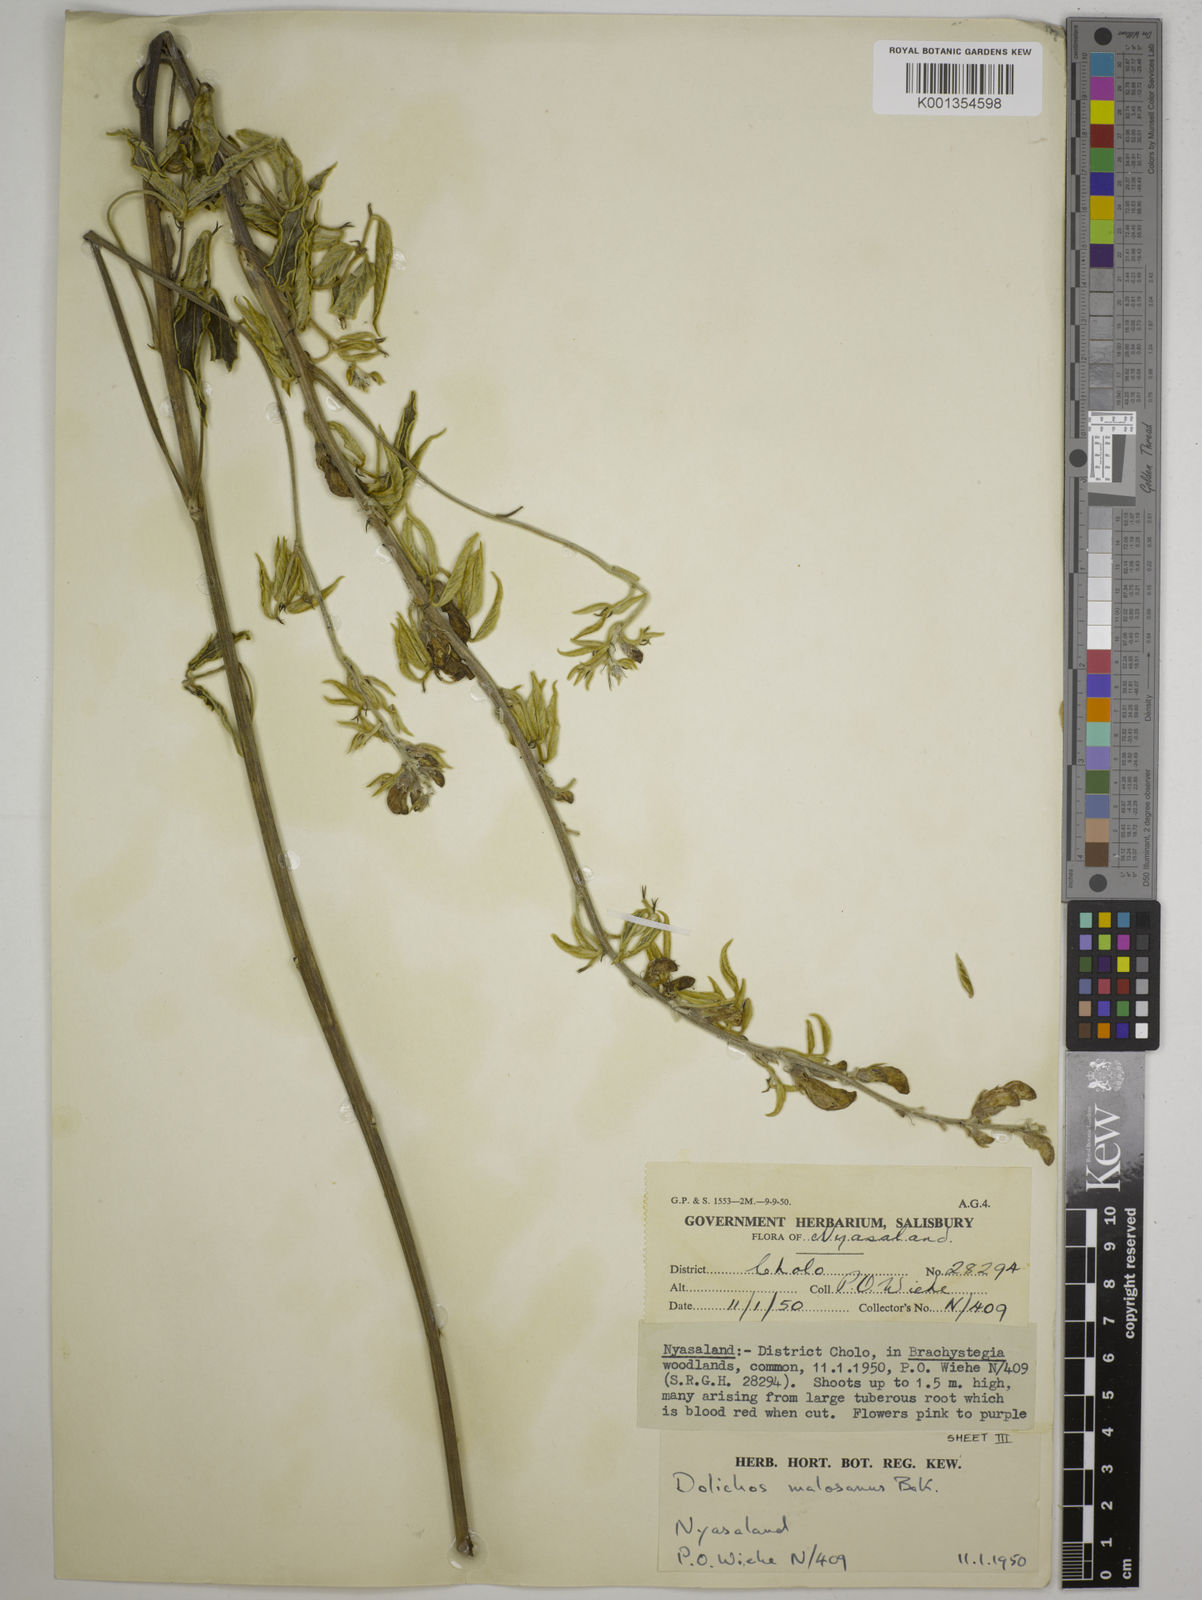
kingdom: Plantae
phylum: Tracheophyta
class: Magnoliopsida
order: Fabales
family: Fabaceae
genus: Dolichos
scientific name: Dolichos kilimandscharicus
